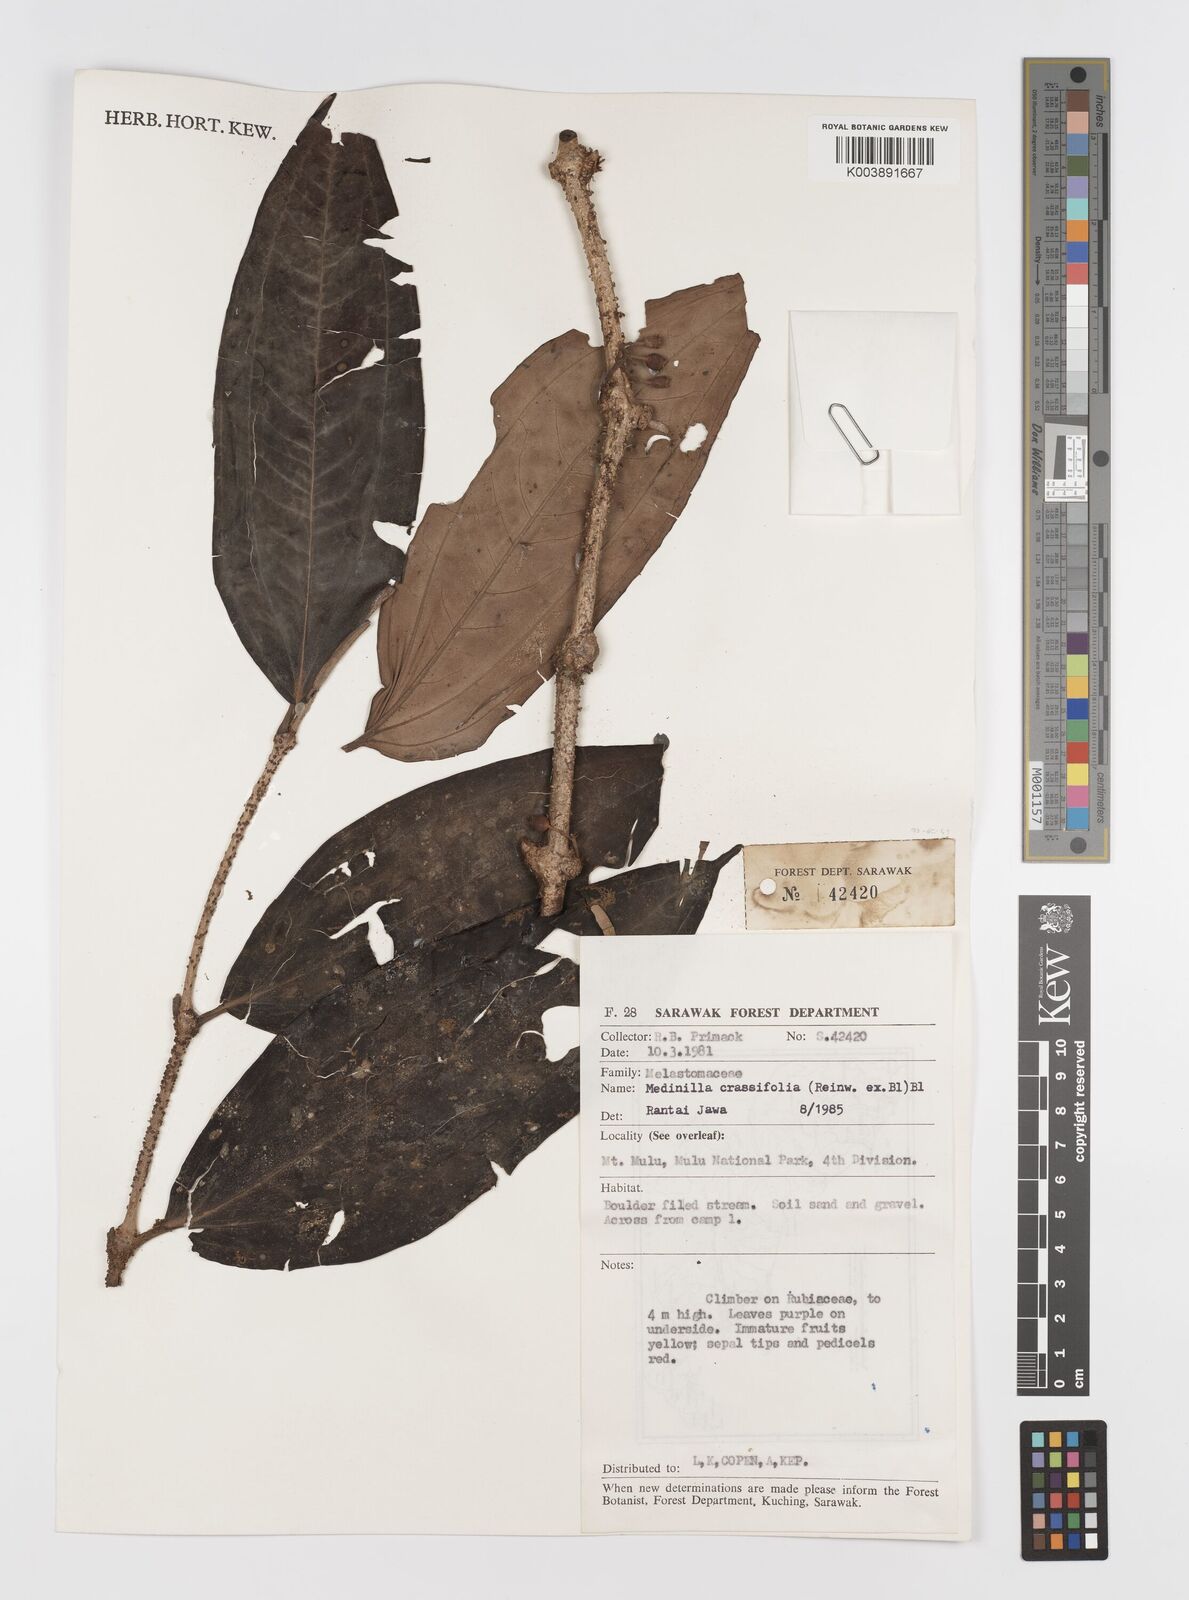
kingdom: Plantae
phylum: Tracheophyta
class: Magnoliopsida
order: Myrtales
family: Melastomataceae
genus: Medinilla
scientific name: Medinilla crassifolia
